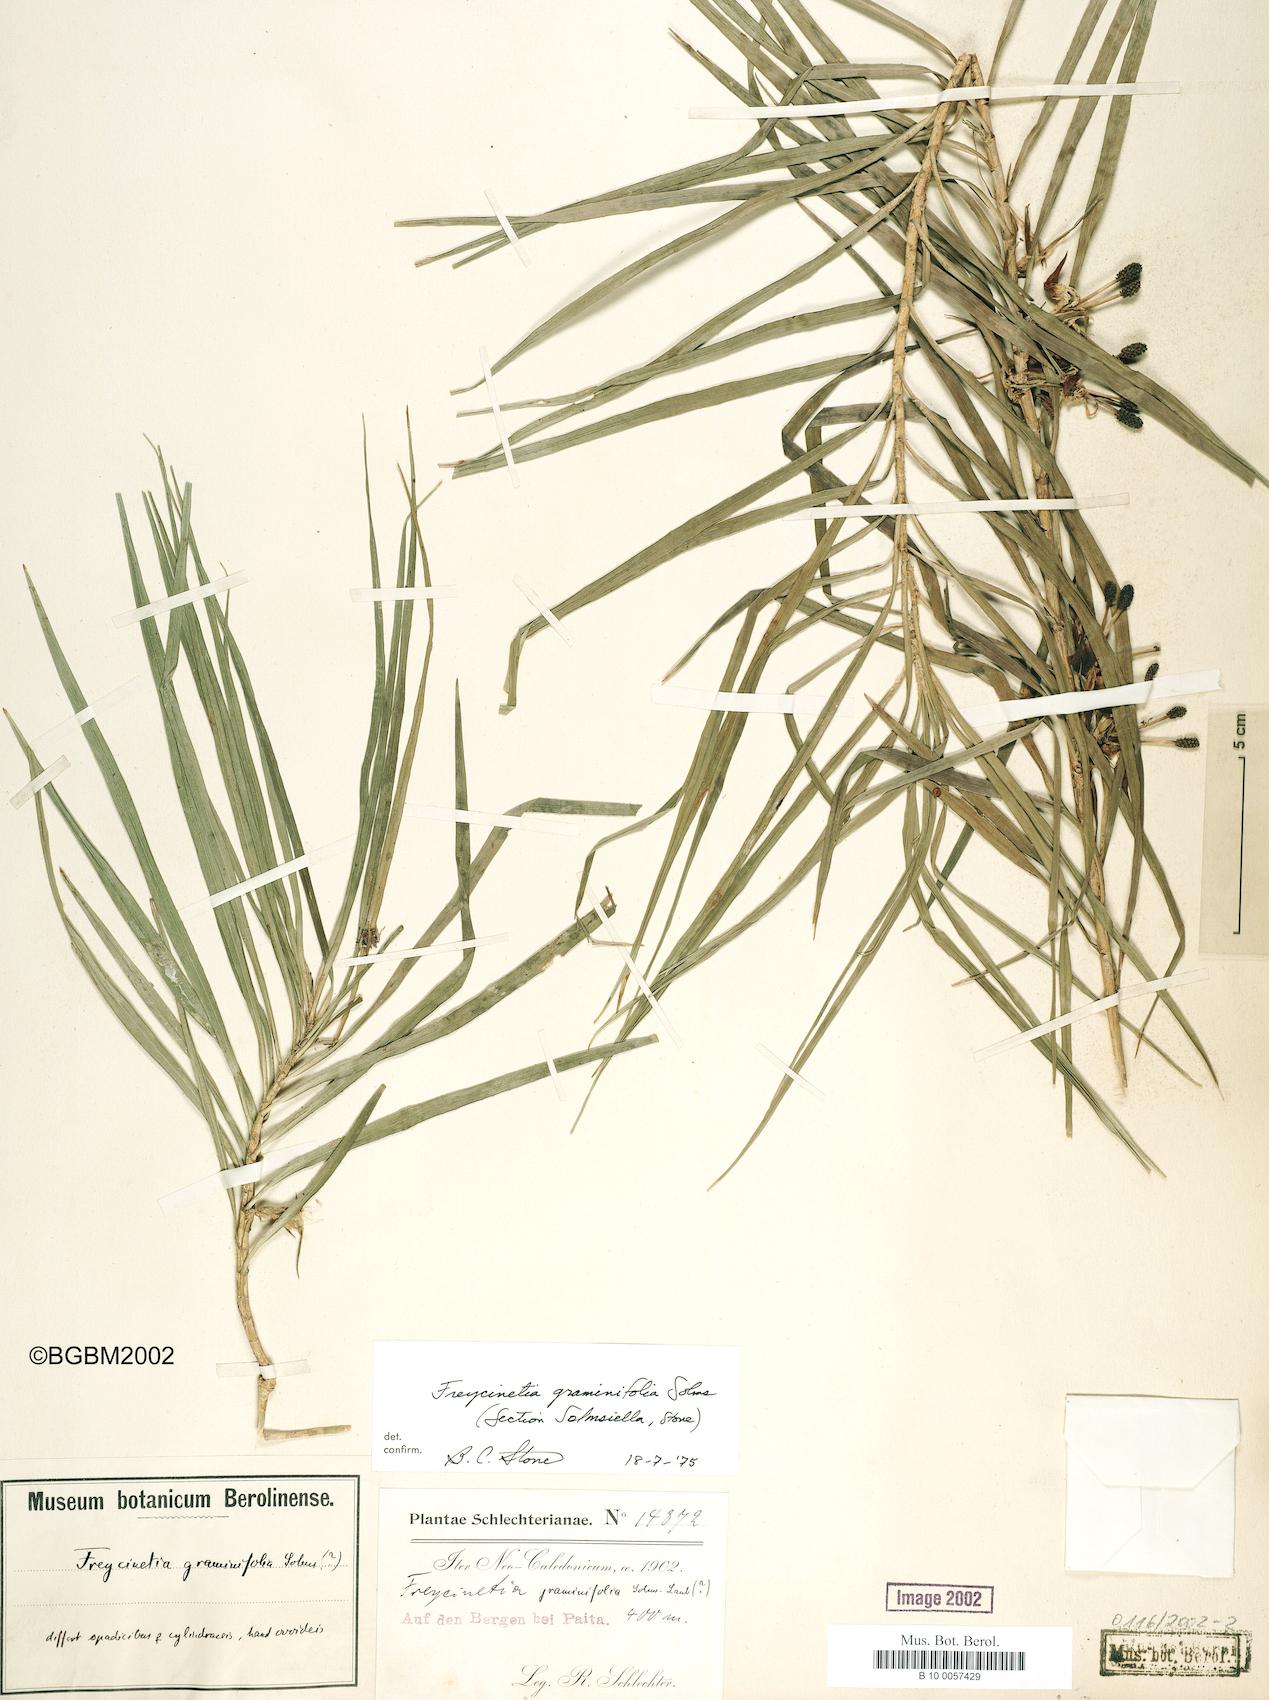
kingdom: Plantae
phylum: Tracheophyta
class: Liliopsida
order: Pandanales
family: Pandanaceae
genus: Freycinetia
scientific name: Freycinetia graminifolia
